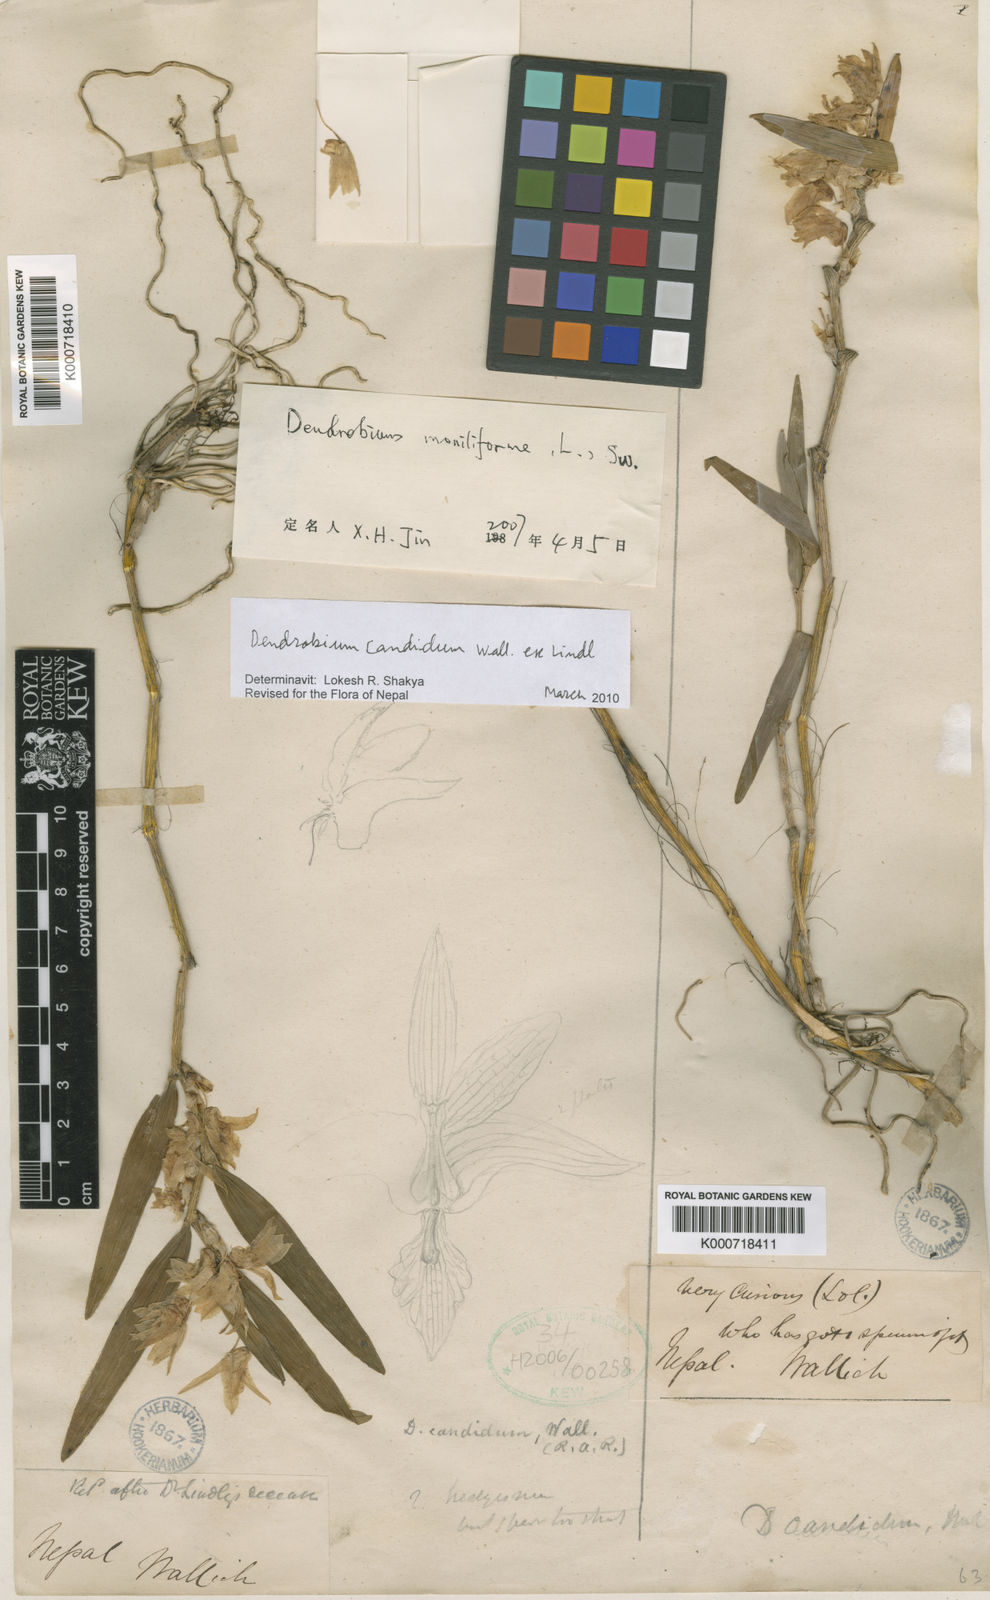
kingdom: Plantae
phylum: Tracheophyta
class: Liliopsida
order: Asparagales
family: Orchidaceae
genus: Dendrobium
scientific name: Dendrobium moniliforme
